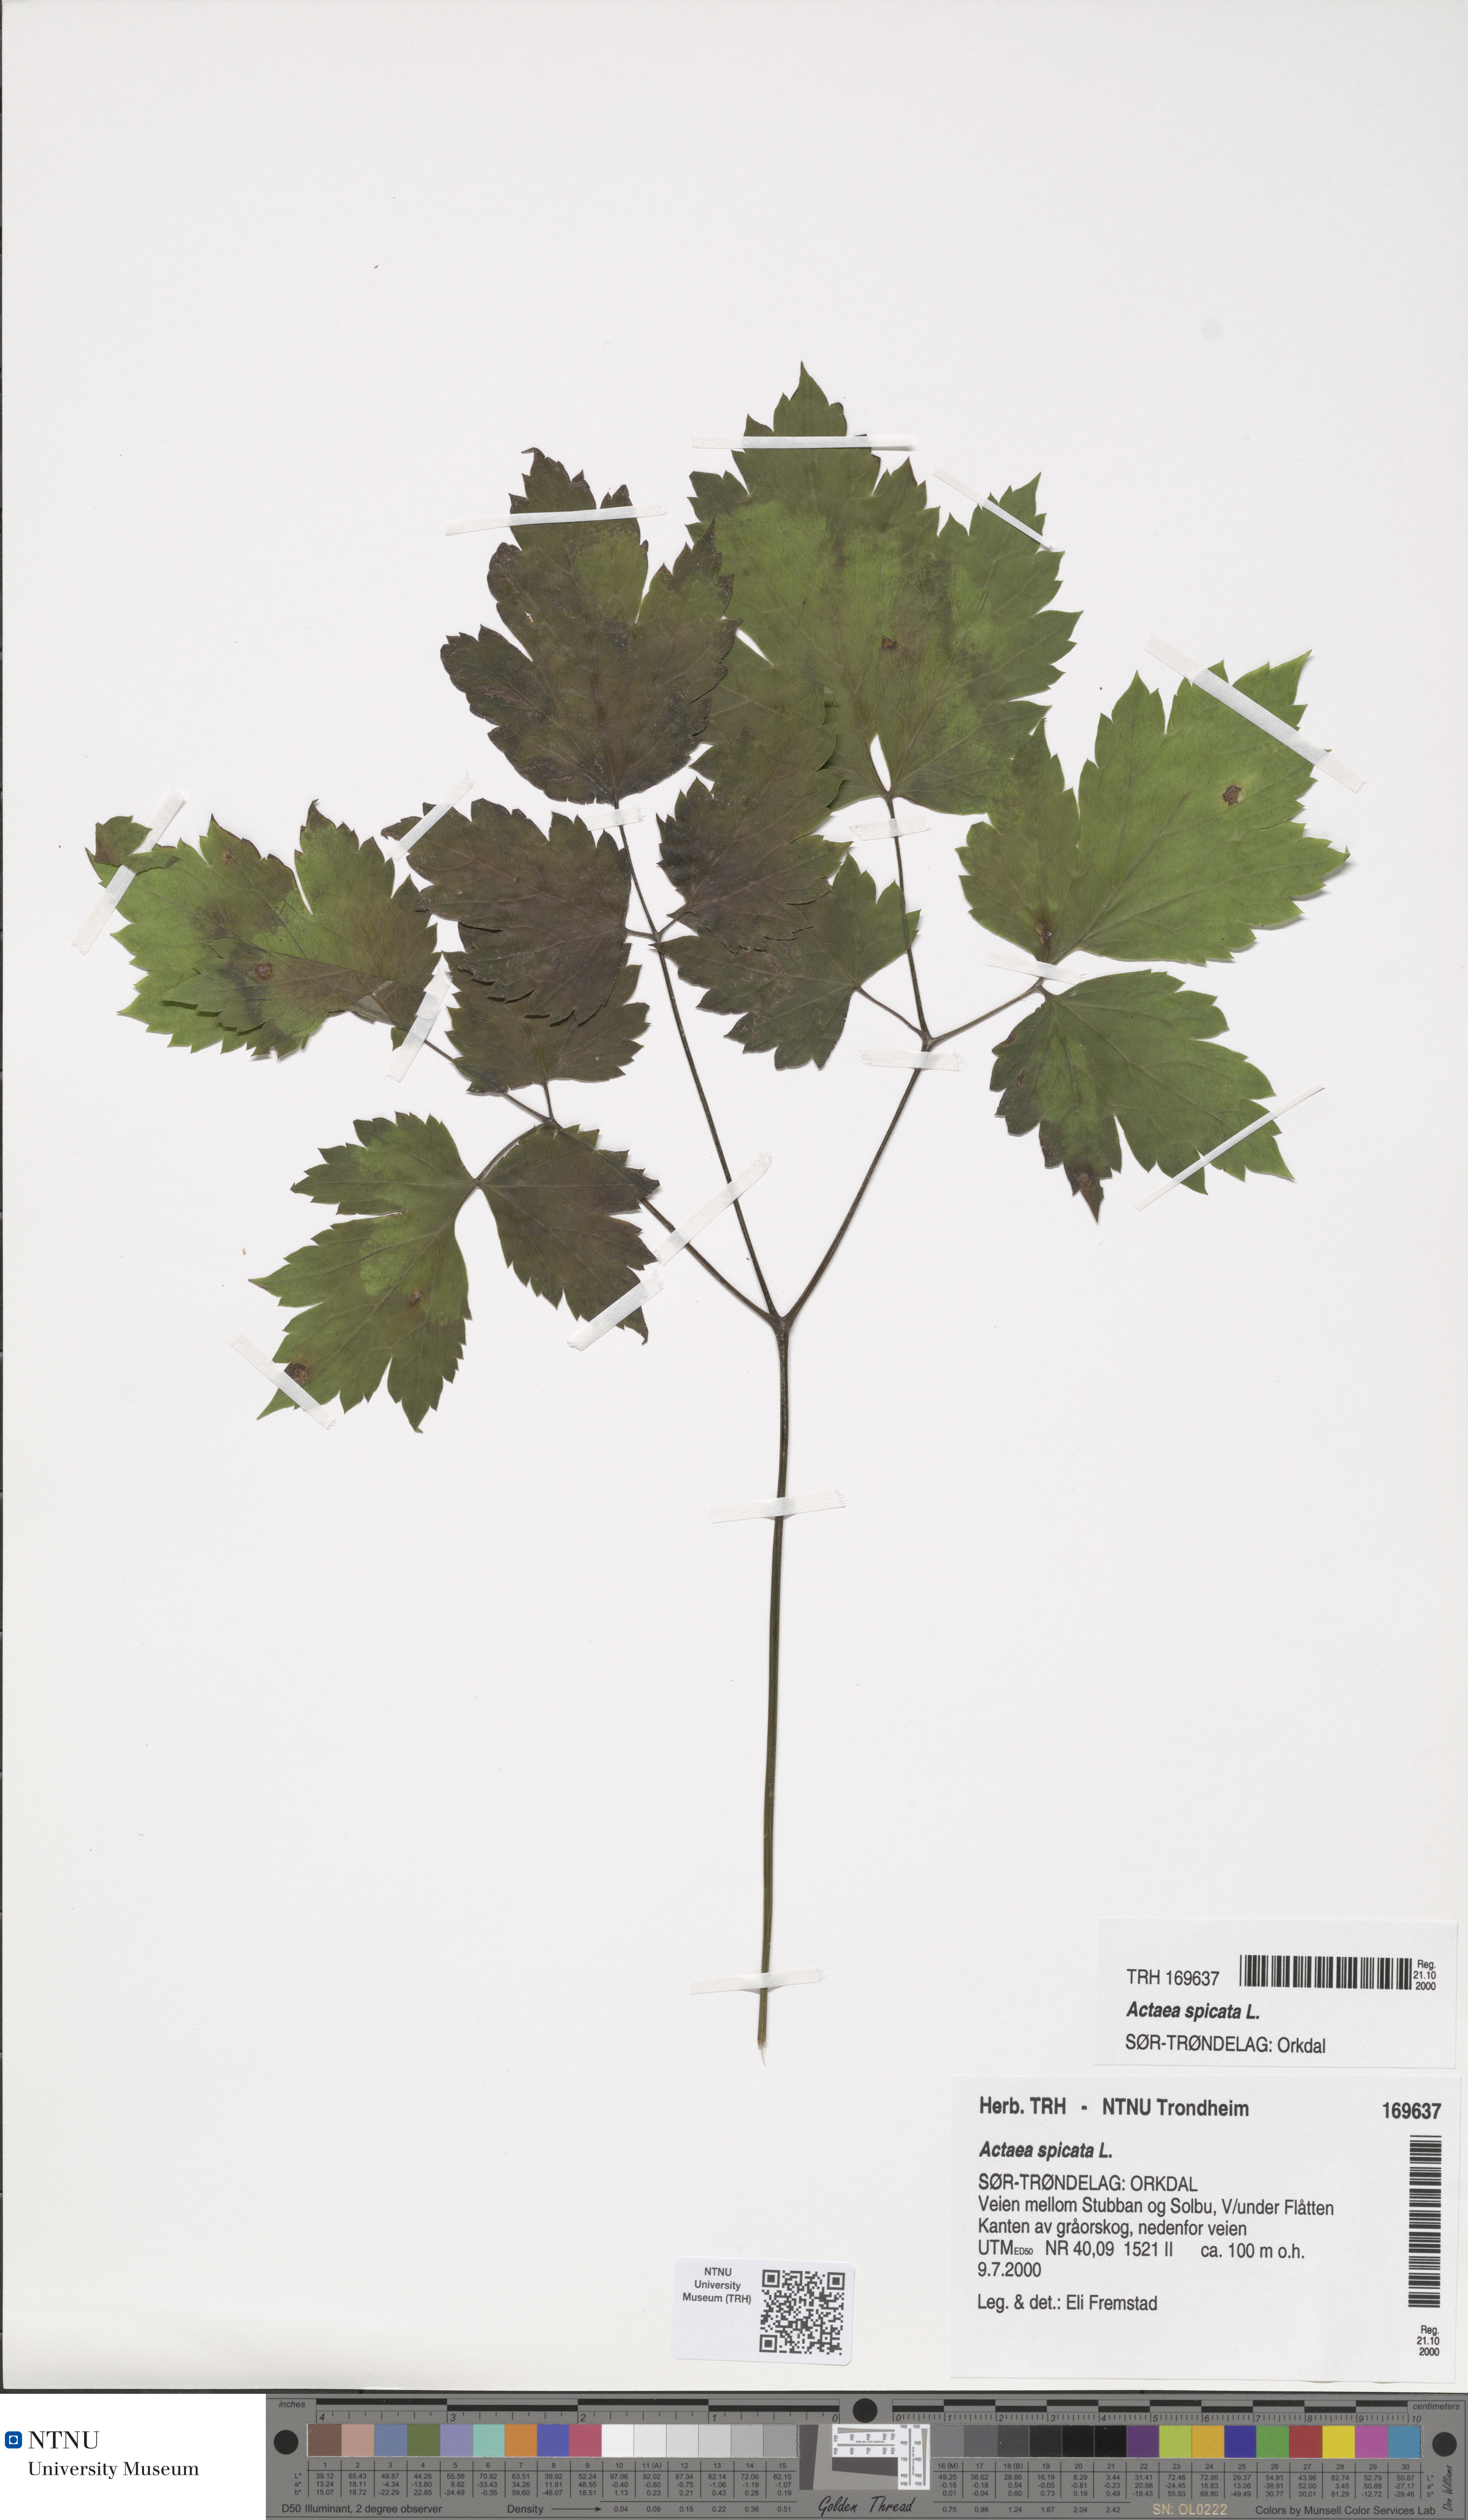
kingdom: Plantae
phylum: Tracheophyta
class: Magnoliopsida
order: Ranunculales
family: Ranunculaceae
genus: Actaea
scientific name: Actaea spicata
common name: Baneberry
